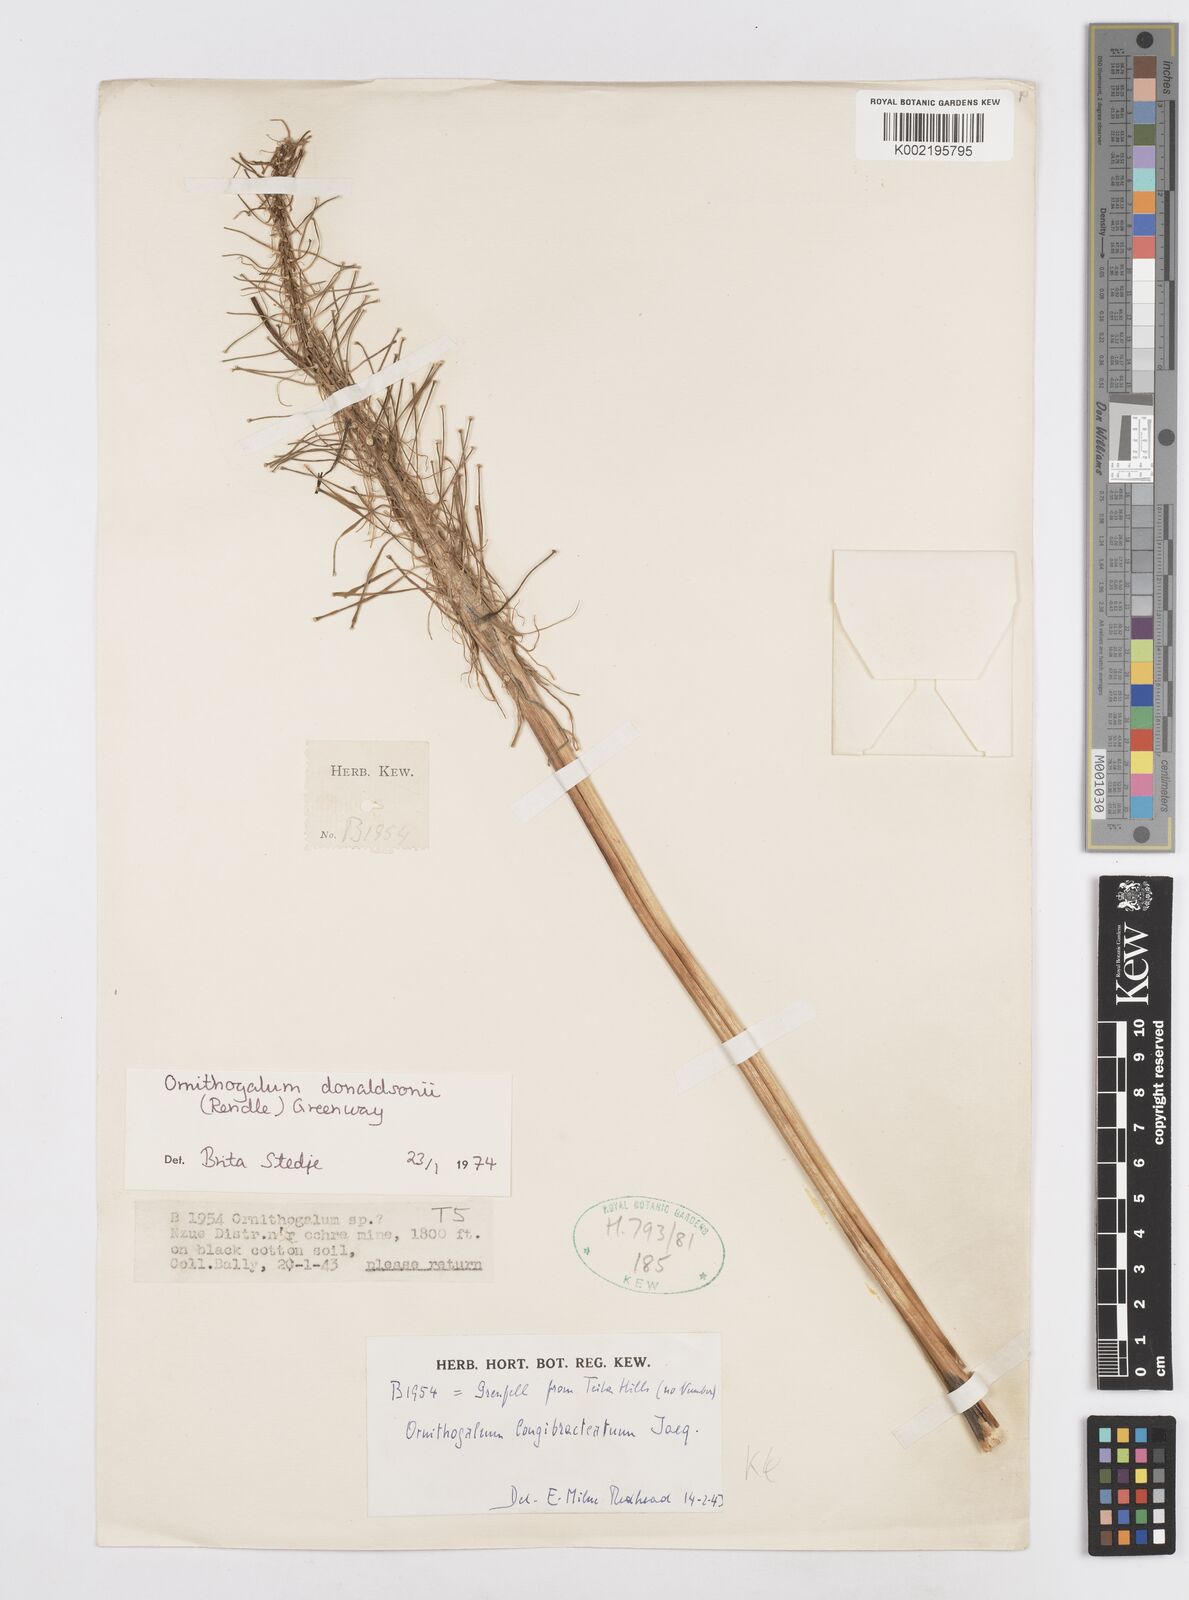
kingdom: Plantae
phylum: Tracheophyta
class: Liliopsida
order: Asparagales
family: Asparagaceae
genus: Albuca
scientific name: Albuca donaldsonii
